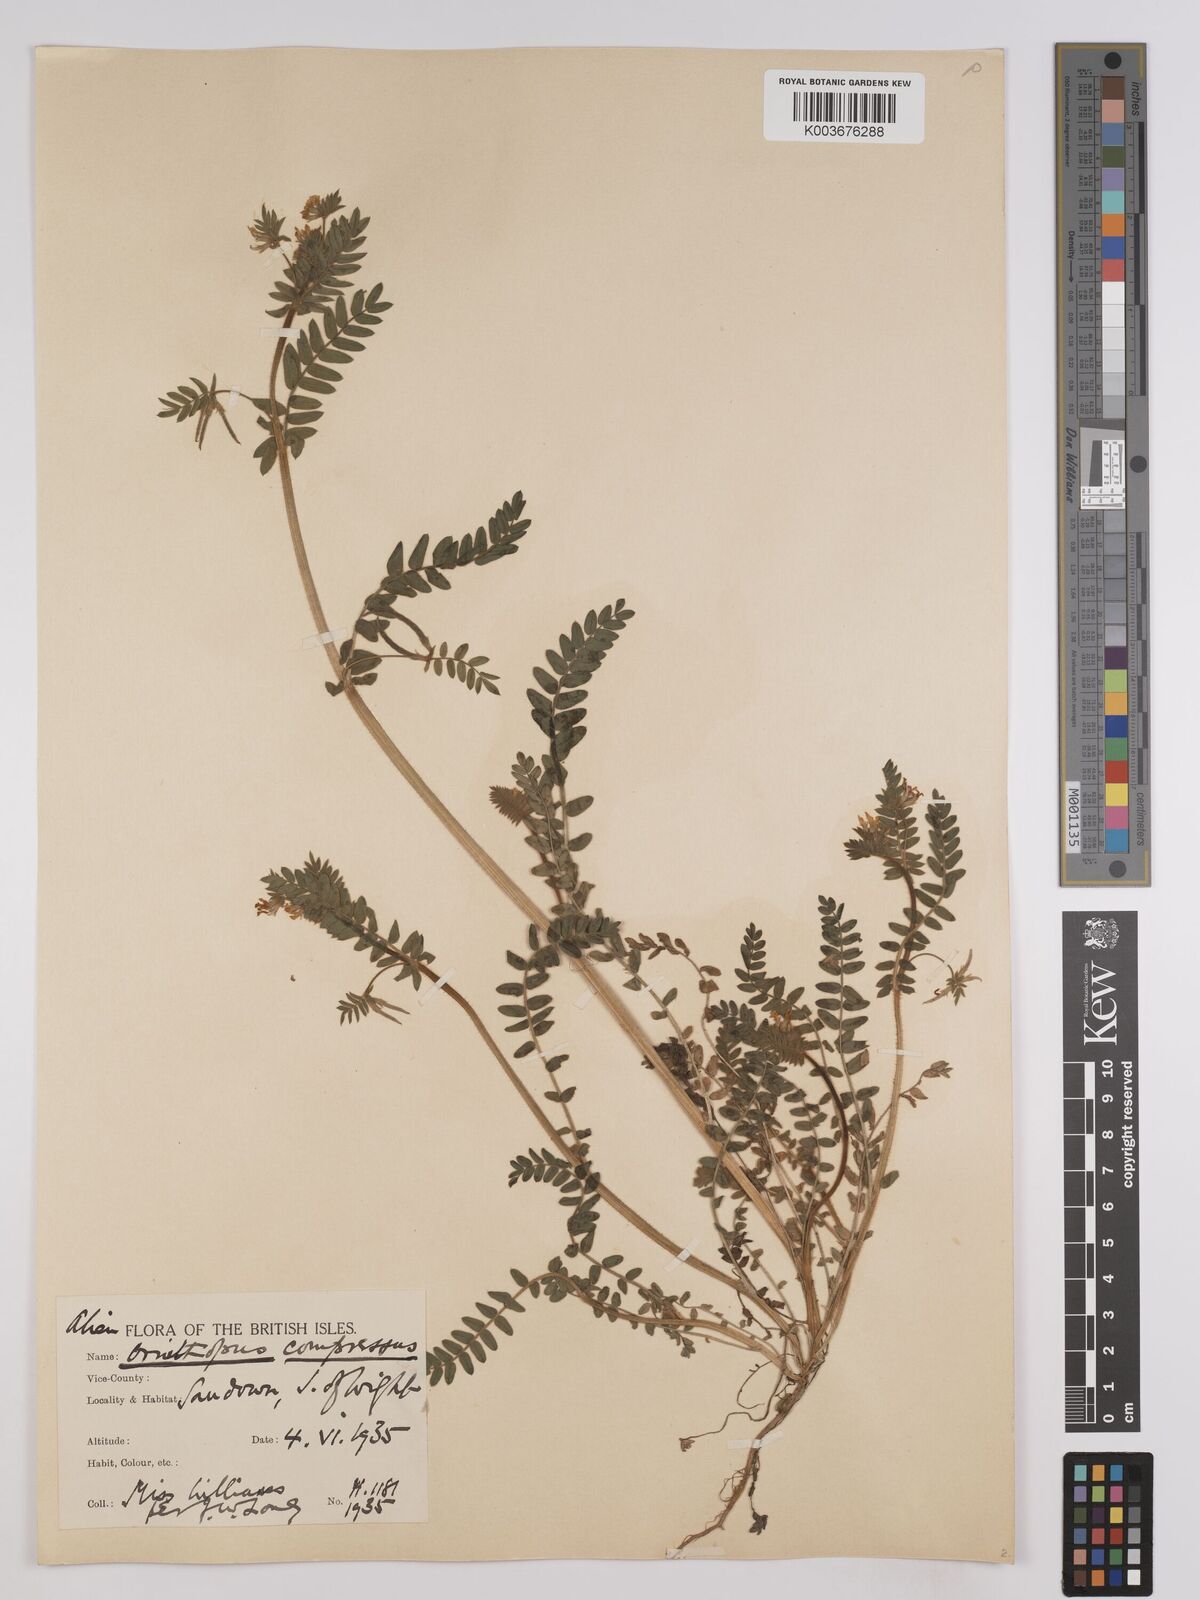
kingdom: Plantae
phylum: Tracheophyta
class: Magnoliopsida
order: Fabales
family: Fabaceae
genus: Ornithopus
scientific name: Ornithopus compressus
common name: Yellow serradella
